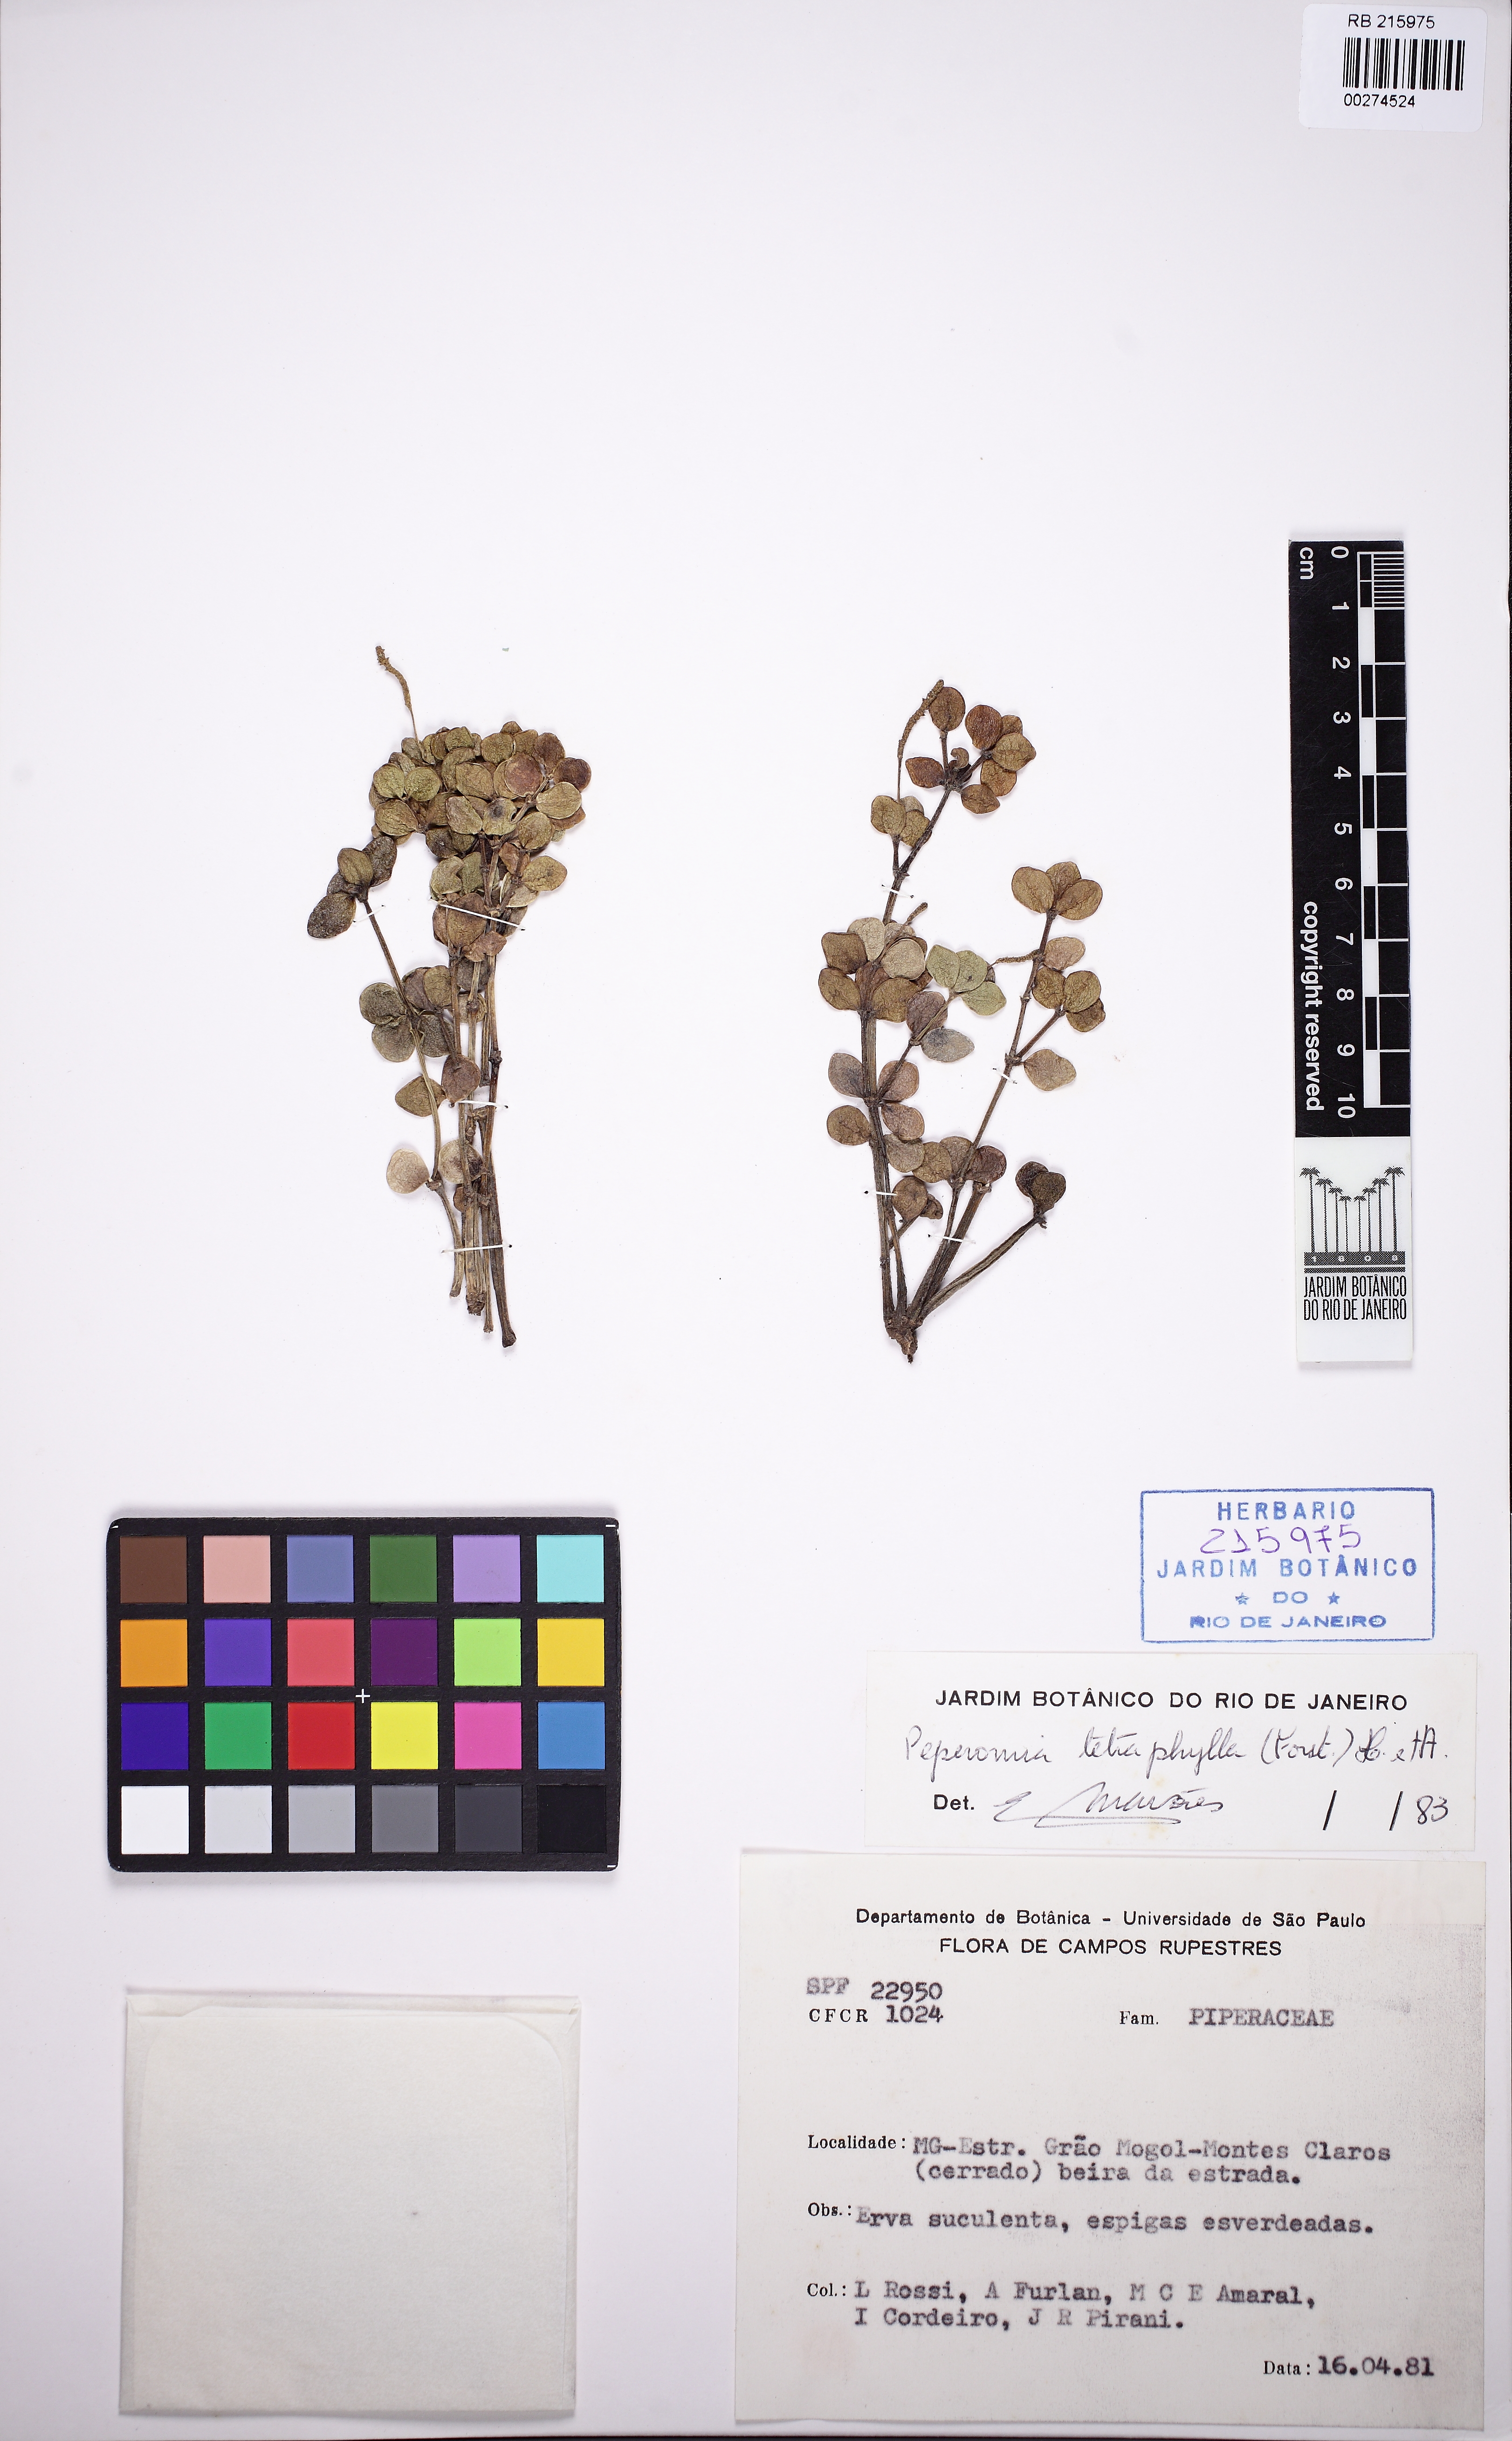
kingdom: Plantae
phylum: Tracheophyta
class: Magnoliopsida
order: Piperales
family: Piperaceae
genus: Peperomia
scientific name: Peperomia tetraphylla
